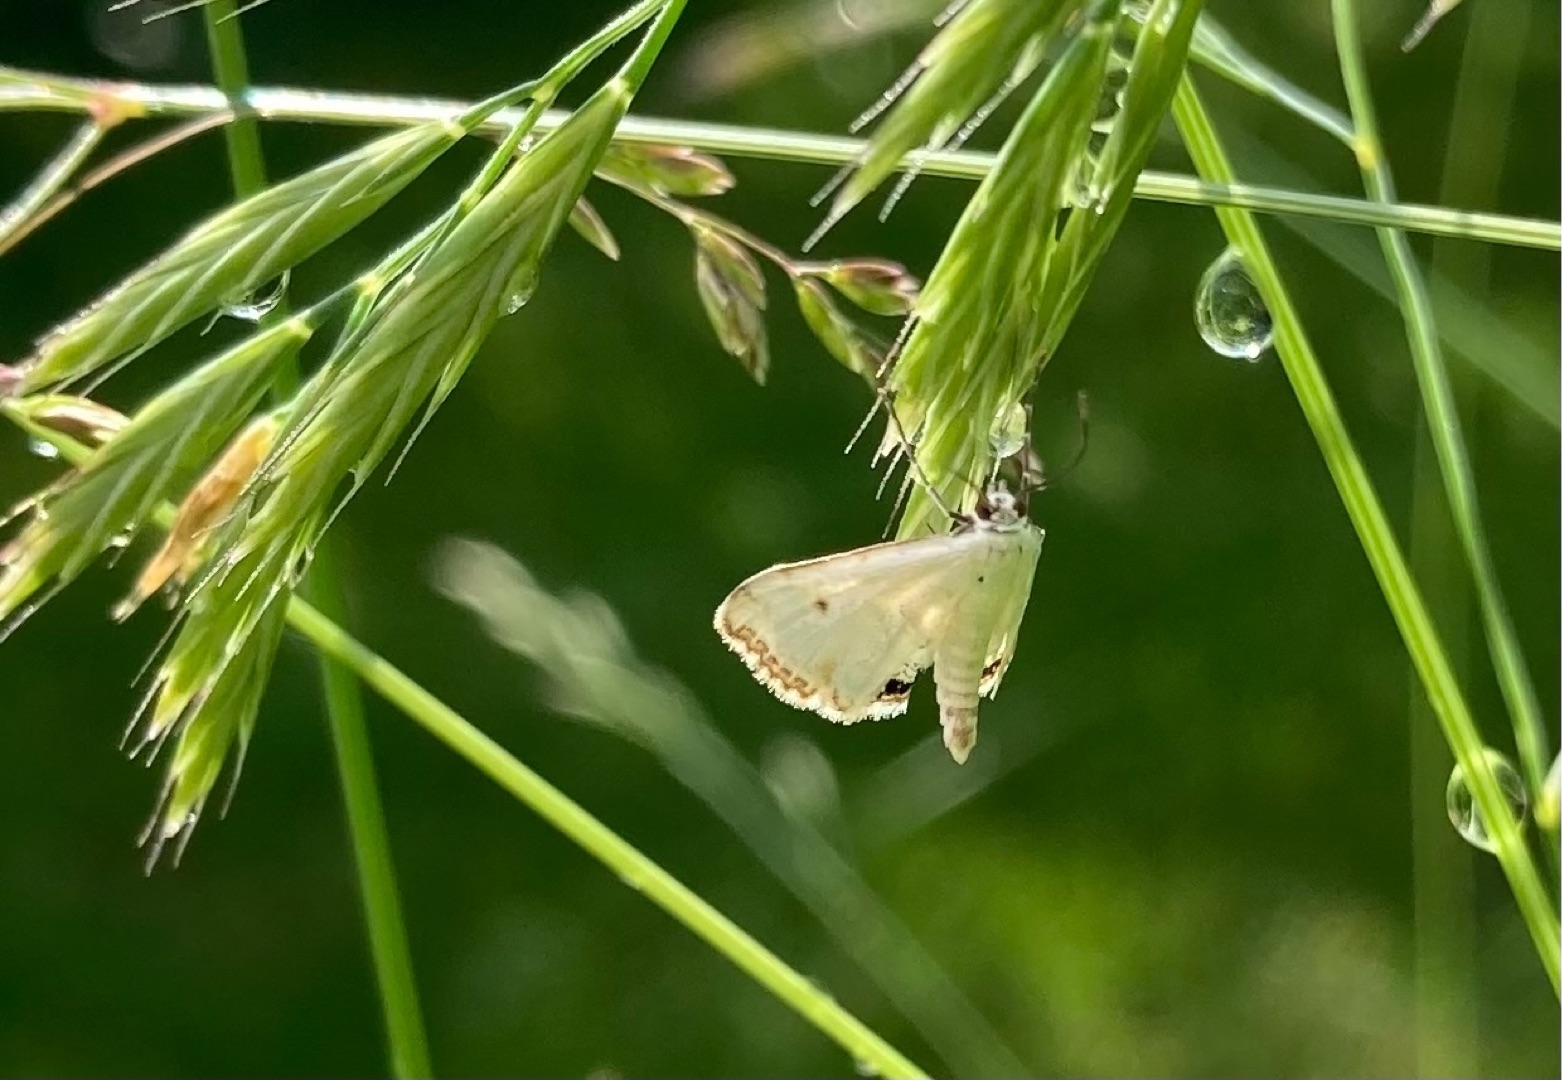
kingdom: Animalia
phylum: Arthropoda
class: Insecta
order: Lepidoptera
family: Crambidae
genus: Cataclysta
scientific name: Cataclysta lemnata
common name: Andemadhalvmøl
